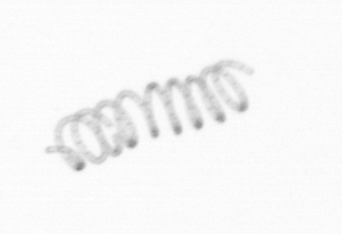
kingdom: Chromista
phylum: Ochrophyta
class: Bacillariophyceae
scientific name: Bacillariophyceae
